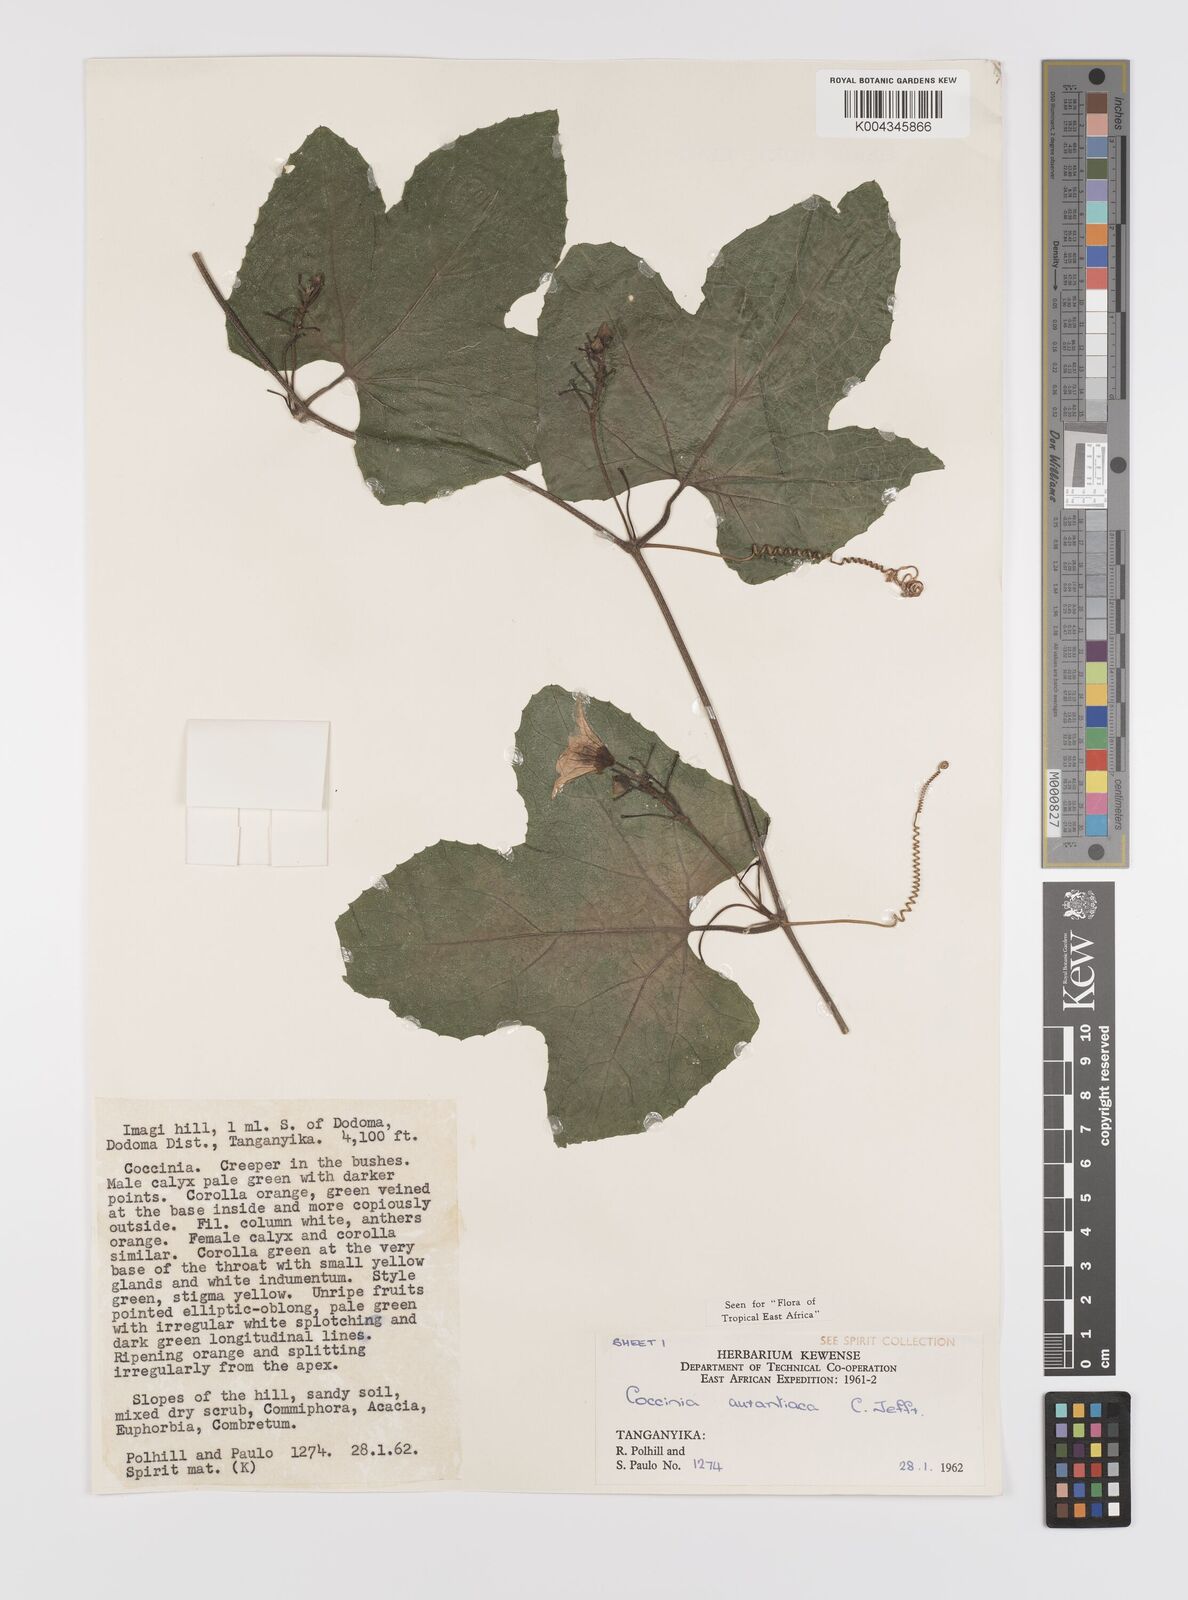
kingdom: Plantae
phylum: Tracheophyta
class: Magnoliopsida
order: Cucurbitales
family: Cucurbitaceae
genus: Coccinia
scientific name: Coccinia adoensis
